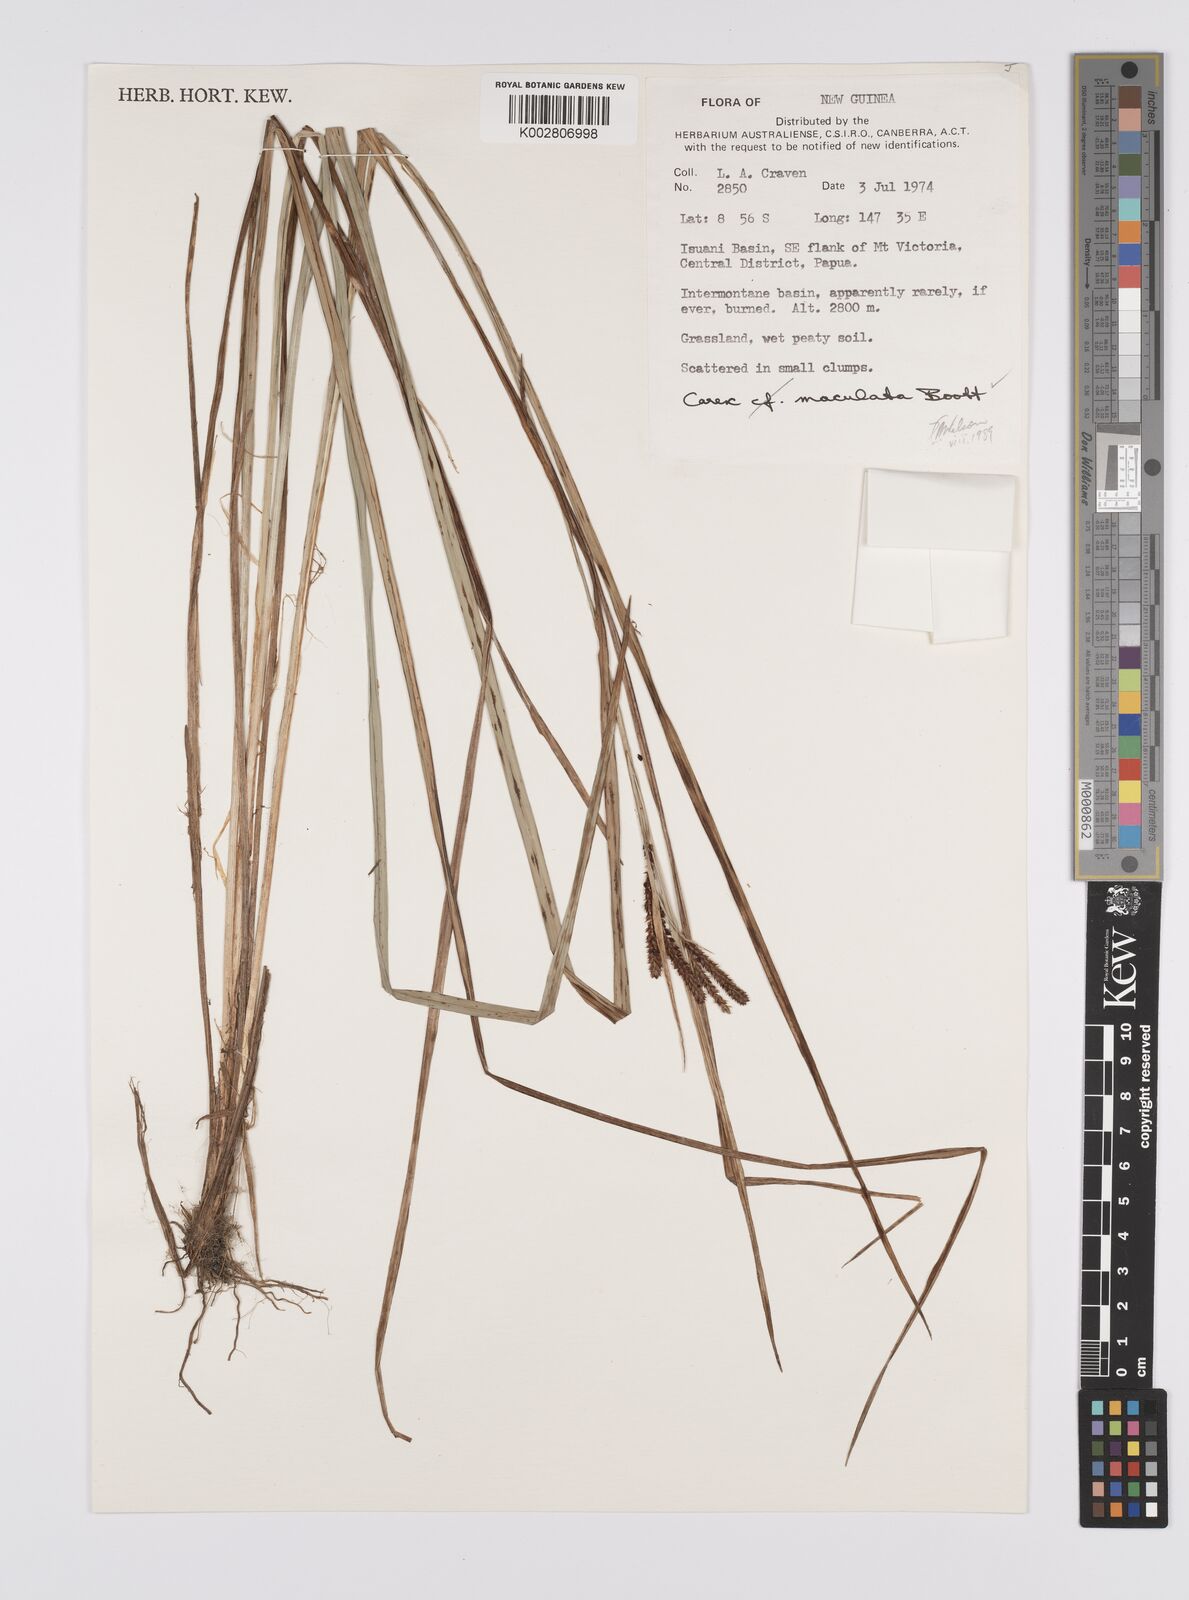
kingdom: Plantae
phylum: Tracheophyta
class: Liliopsida
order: Poales
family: Cyperaceae
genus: Carex
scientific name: Carex maculata
